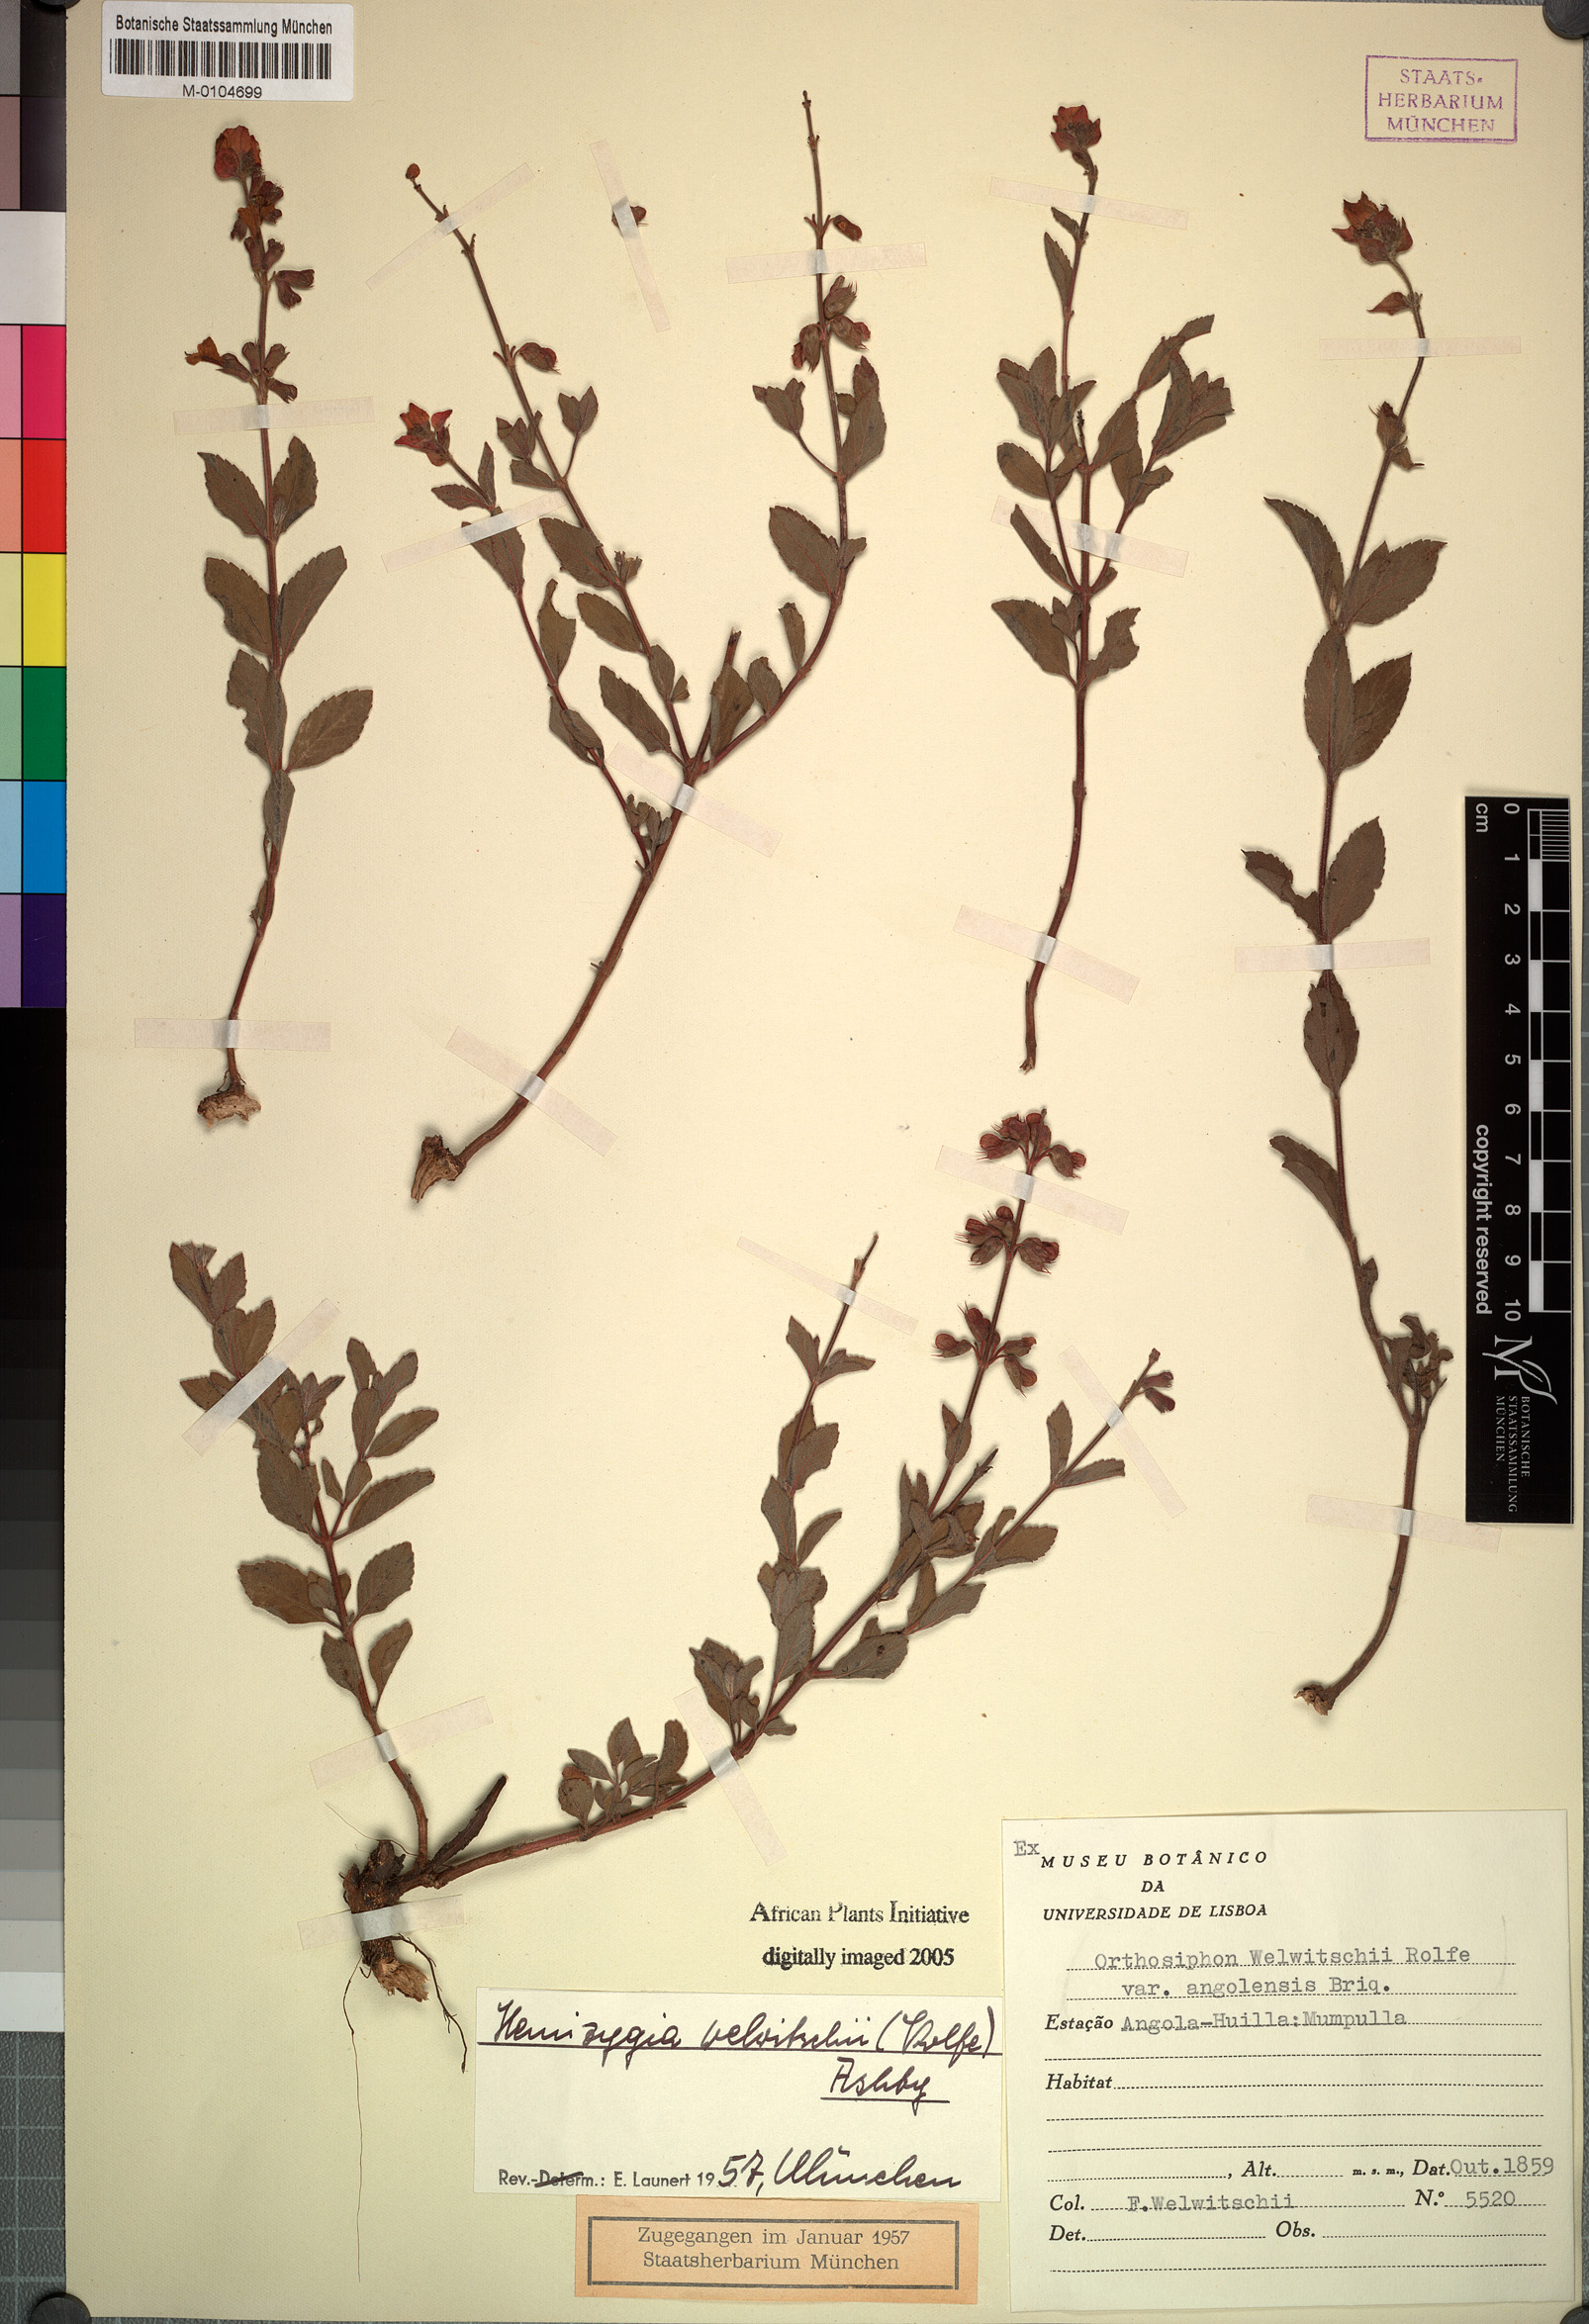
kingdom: Plantae
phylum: Tracheophyta
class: Magnoliopsida
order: Lamiales
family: Lamiaceae
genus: Syncolostemon
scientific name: Syncolostemon welwitschii
